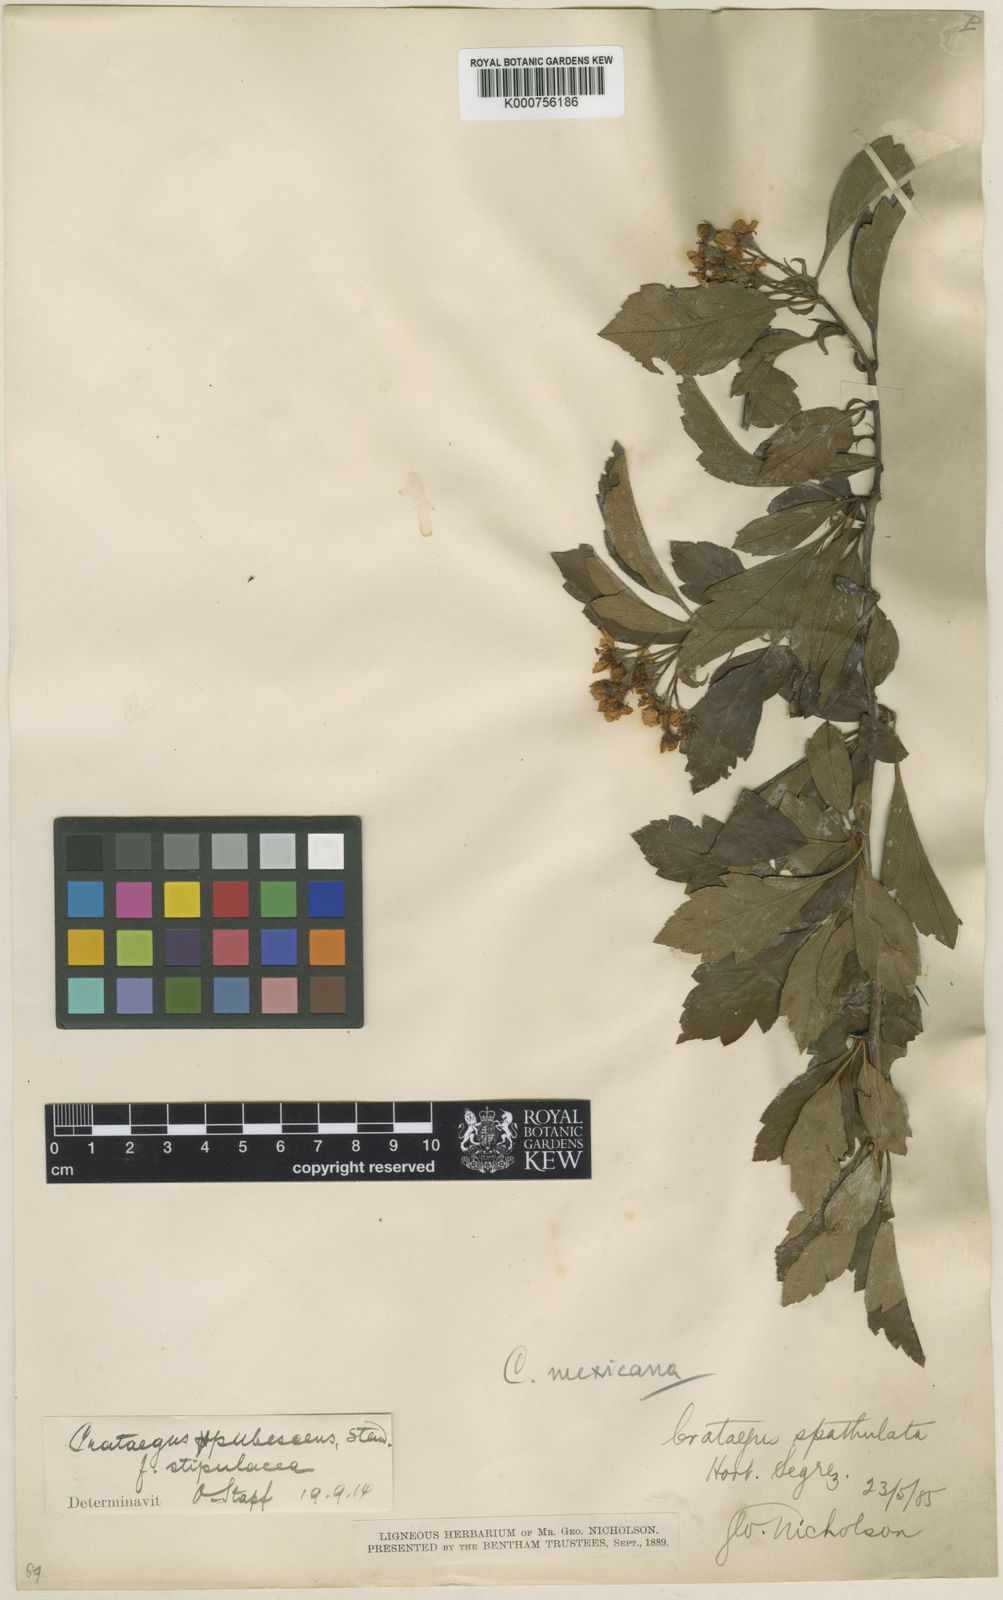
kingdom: Plantae
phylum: Tracheophyta
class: Magnoliopsida
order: Rosales
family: Rosaceae
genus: Crataegus
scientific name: Crataegus gracilior
